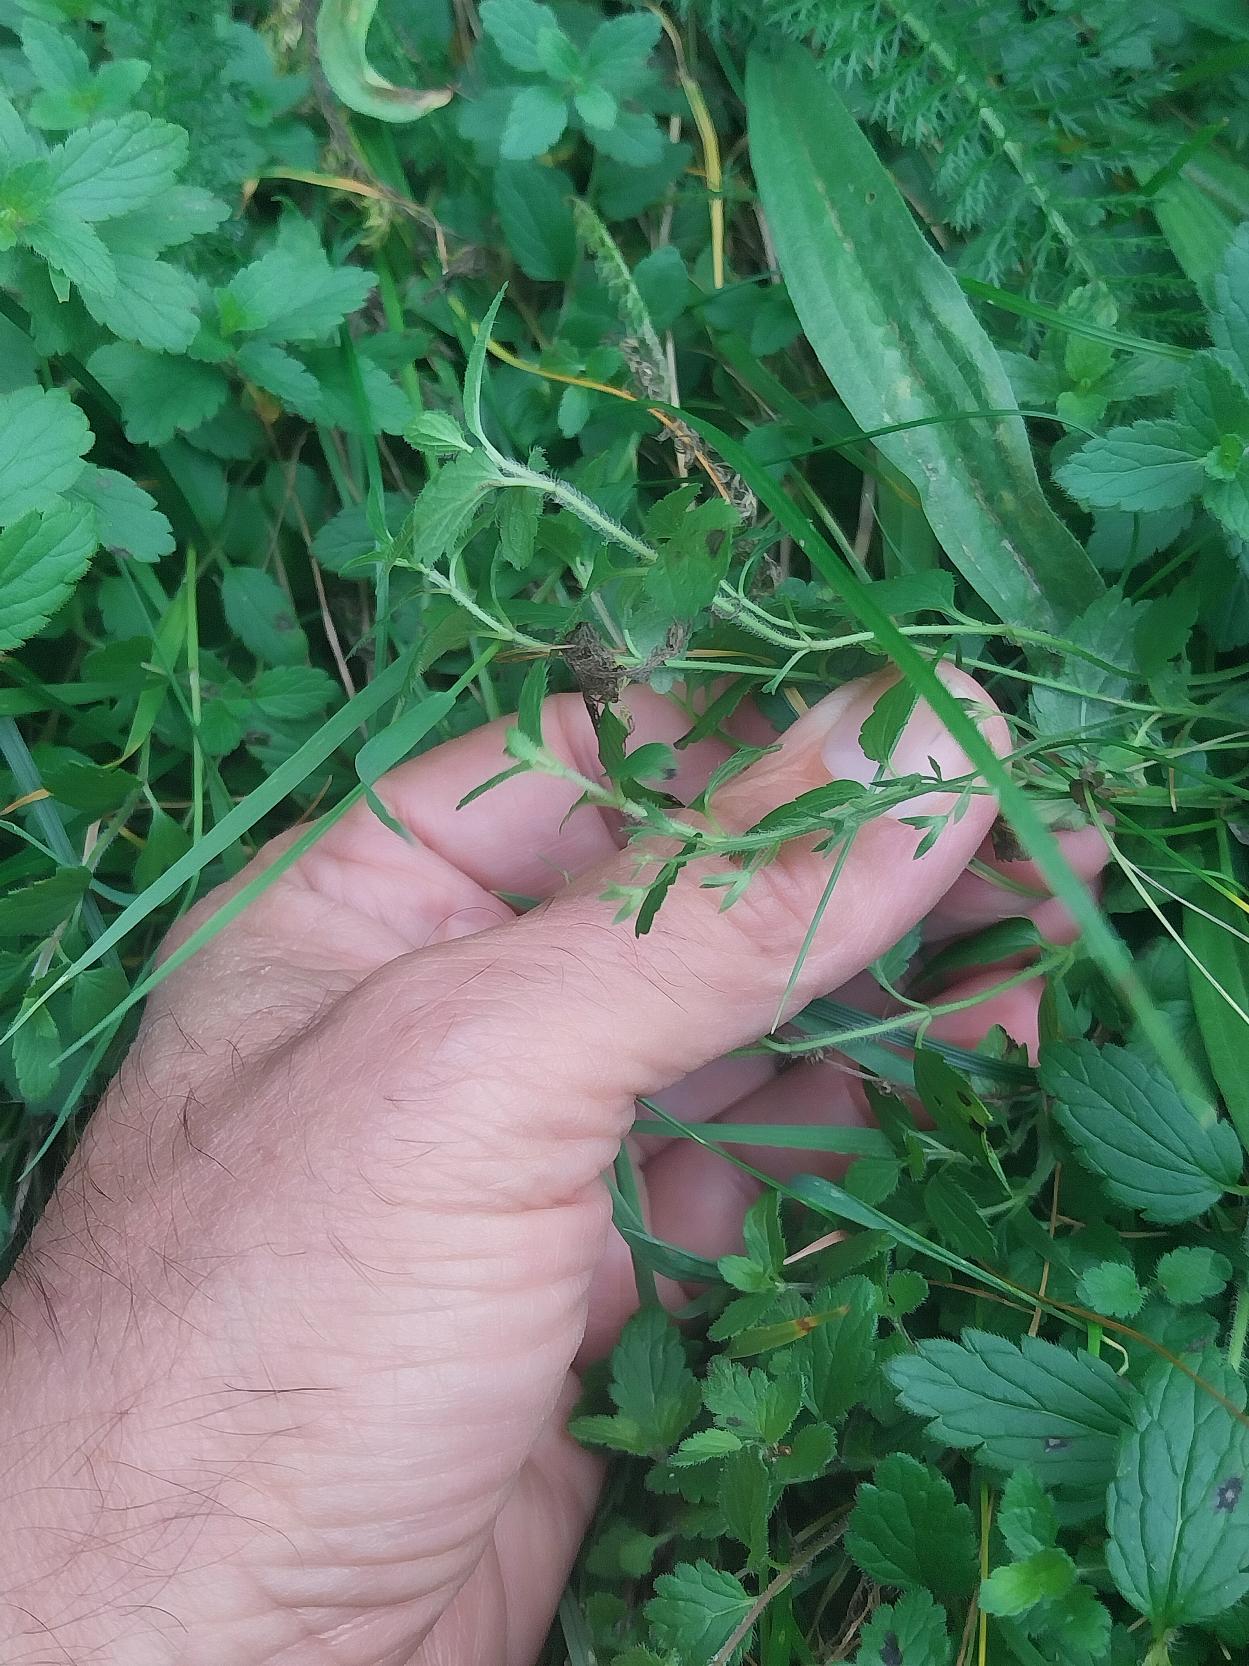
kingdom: Plantae
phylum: Tracheophyta
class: Magnoliopsida
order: Lamiales
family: Plantaginaceae
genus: Veronica
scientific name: Veronica chamaedrys
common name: Tveskægget ærenpris
